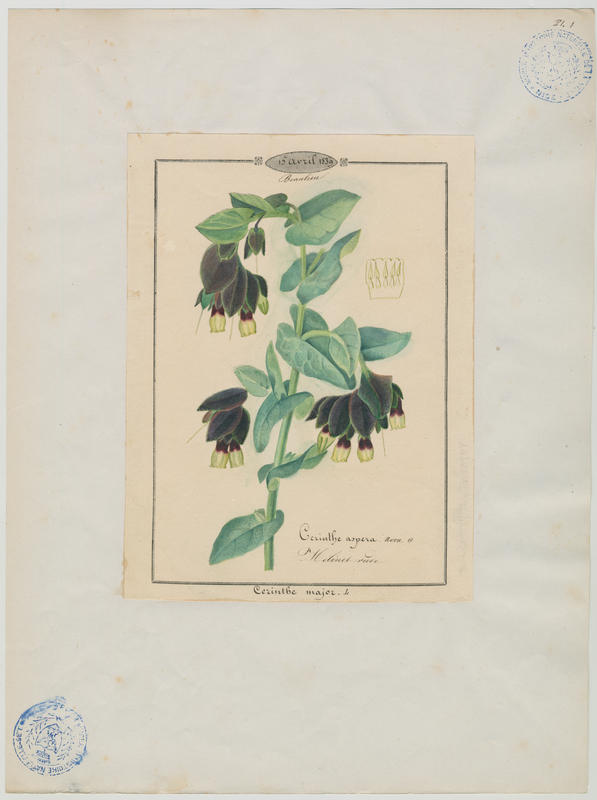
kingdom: Plantae
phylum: Tracheophyta
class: Magnoliopsida
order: Boraginales
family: Boraginaceae
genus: Cerinthe
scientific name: Cerinthe major
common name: Greater honeywort
